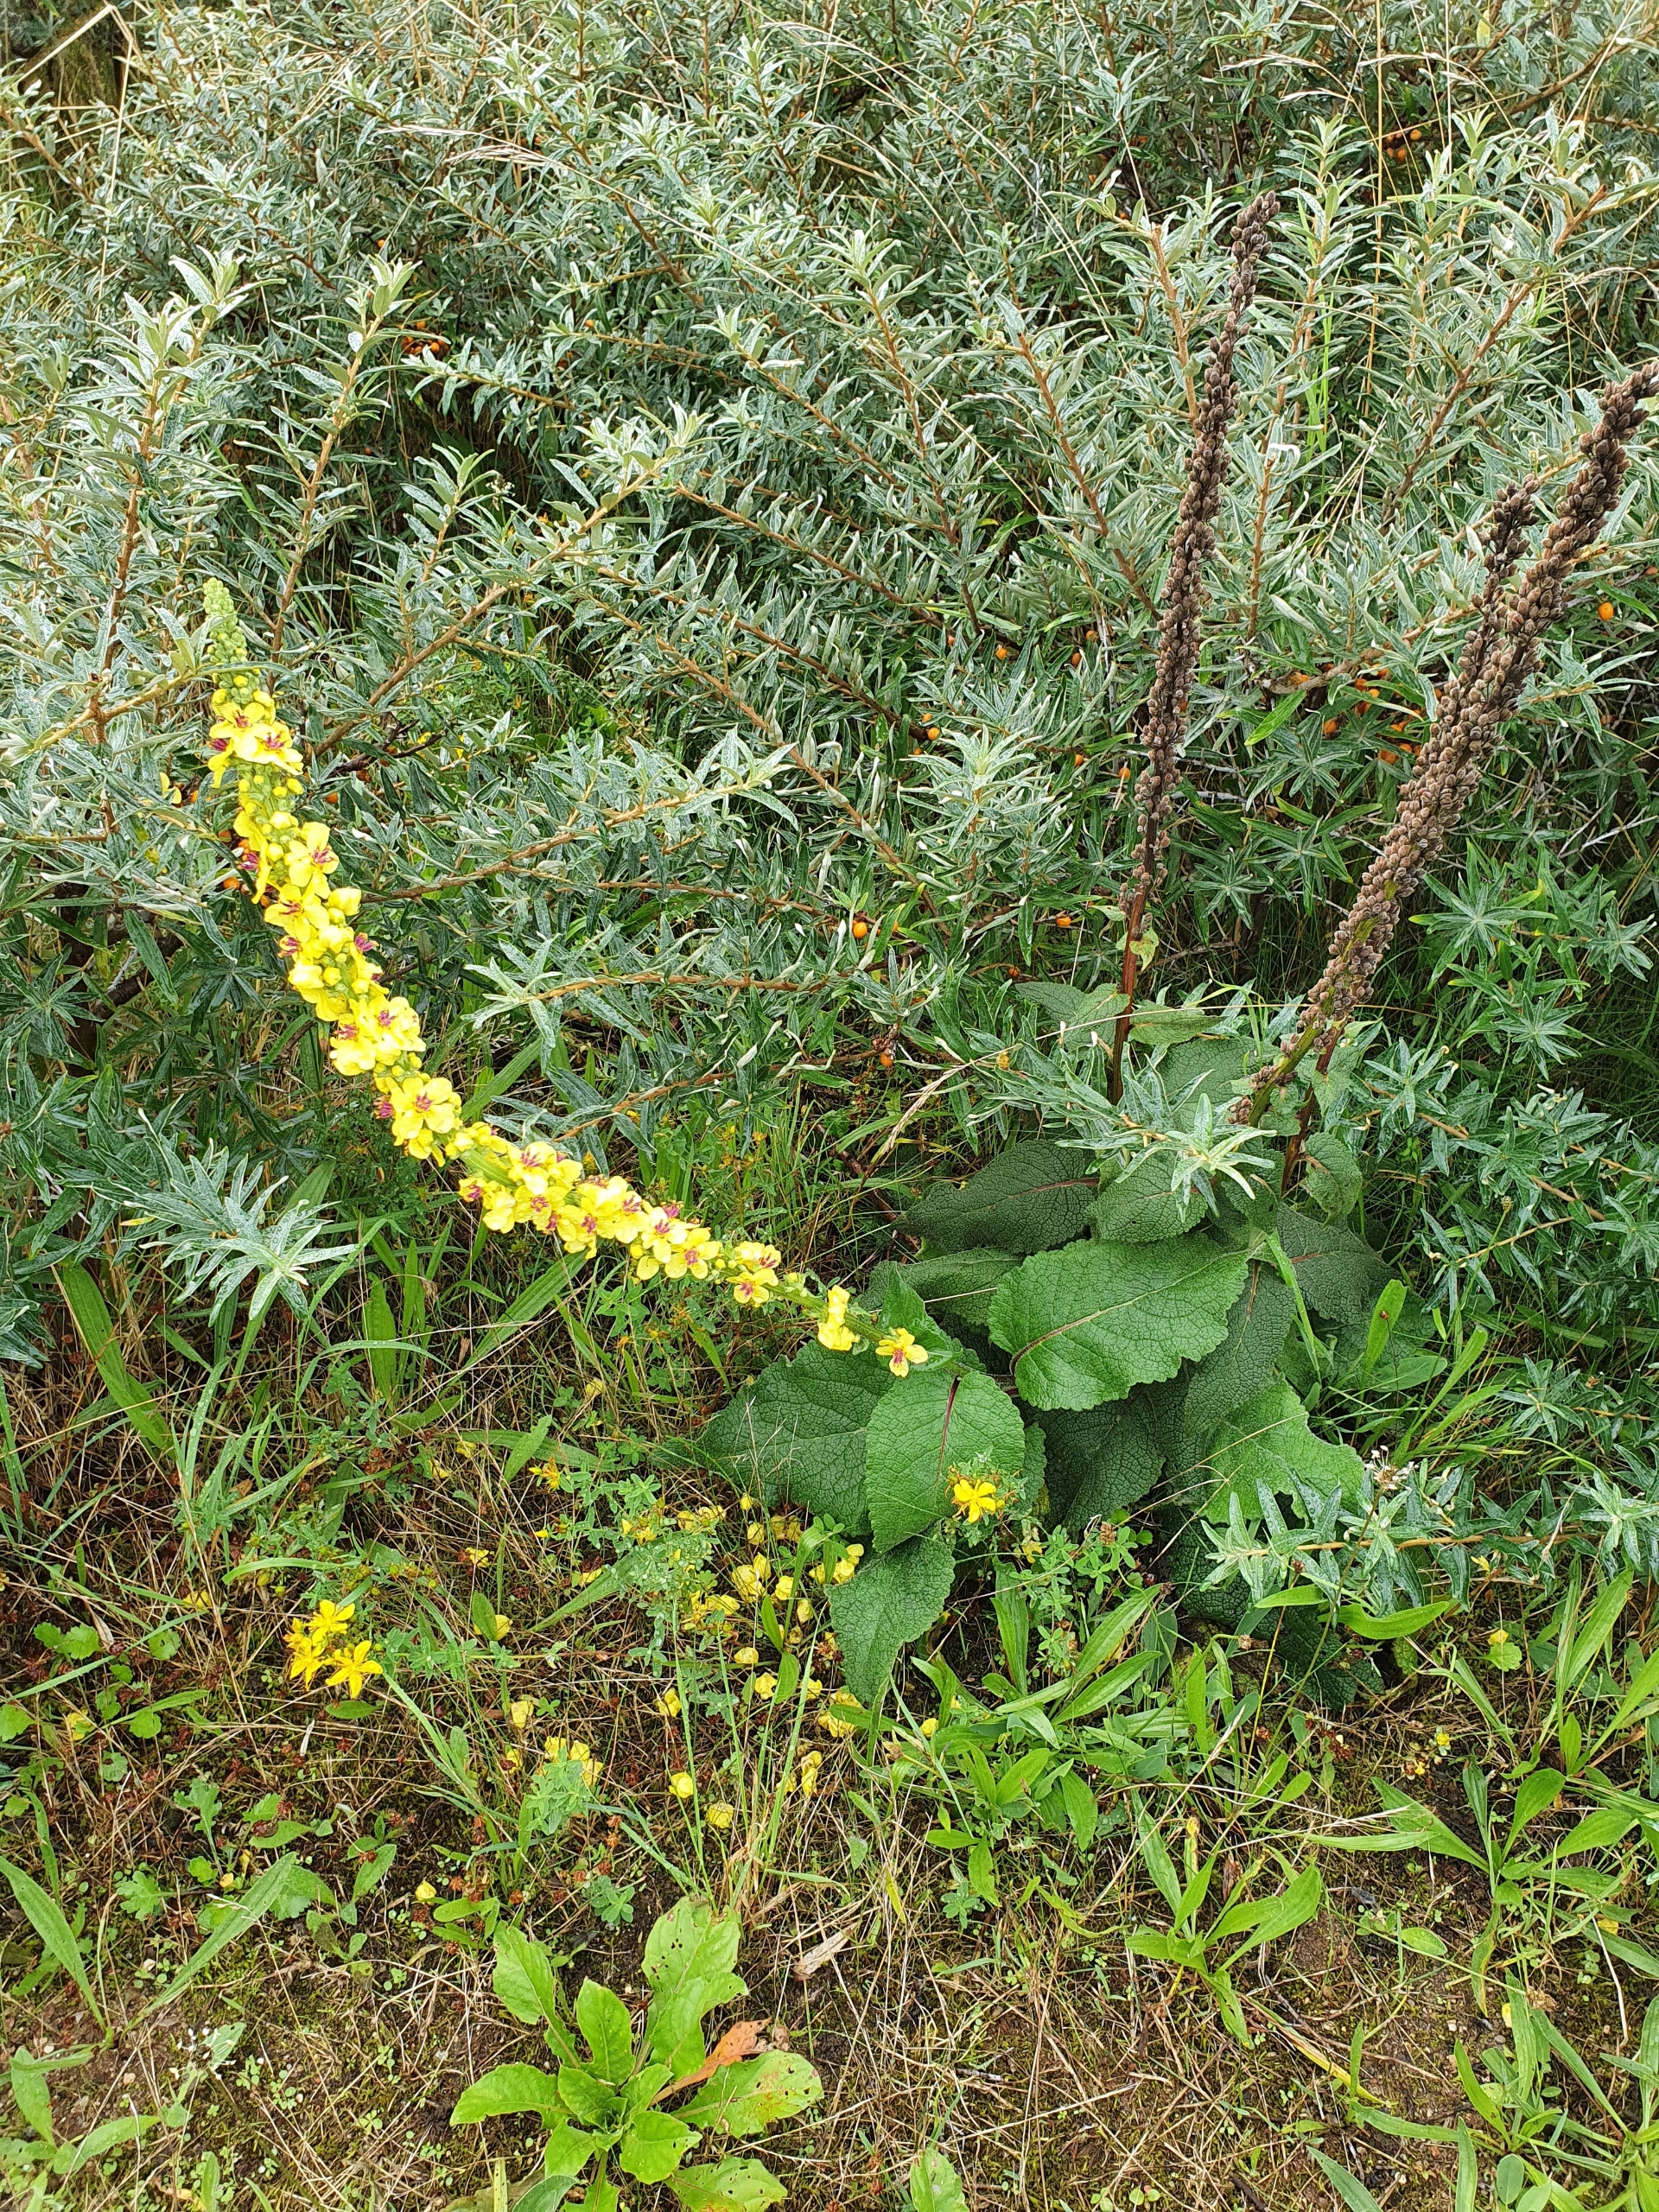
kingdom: Plantae
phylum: Tracheophyta
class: Magnoliopsida
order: Lamiales
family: Scrophulariaceae
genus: Verbascum
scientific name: Verbascum nigrum
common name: Mørk kongelys
